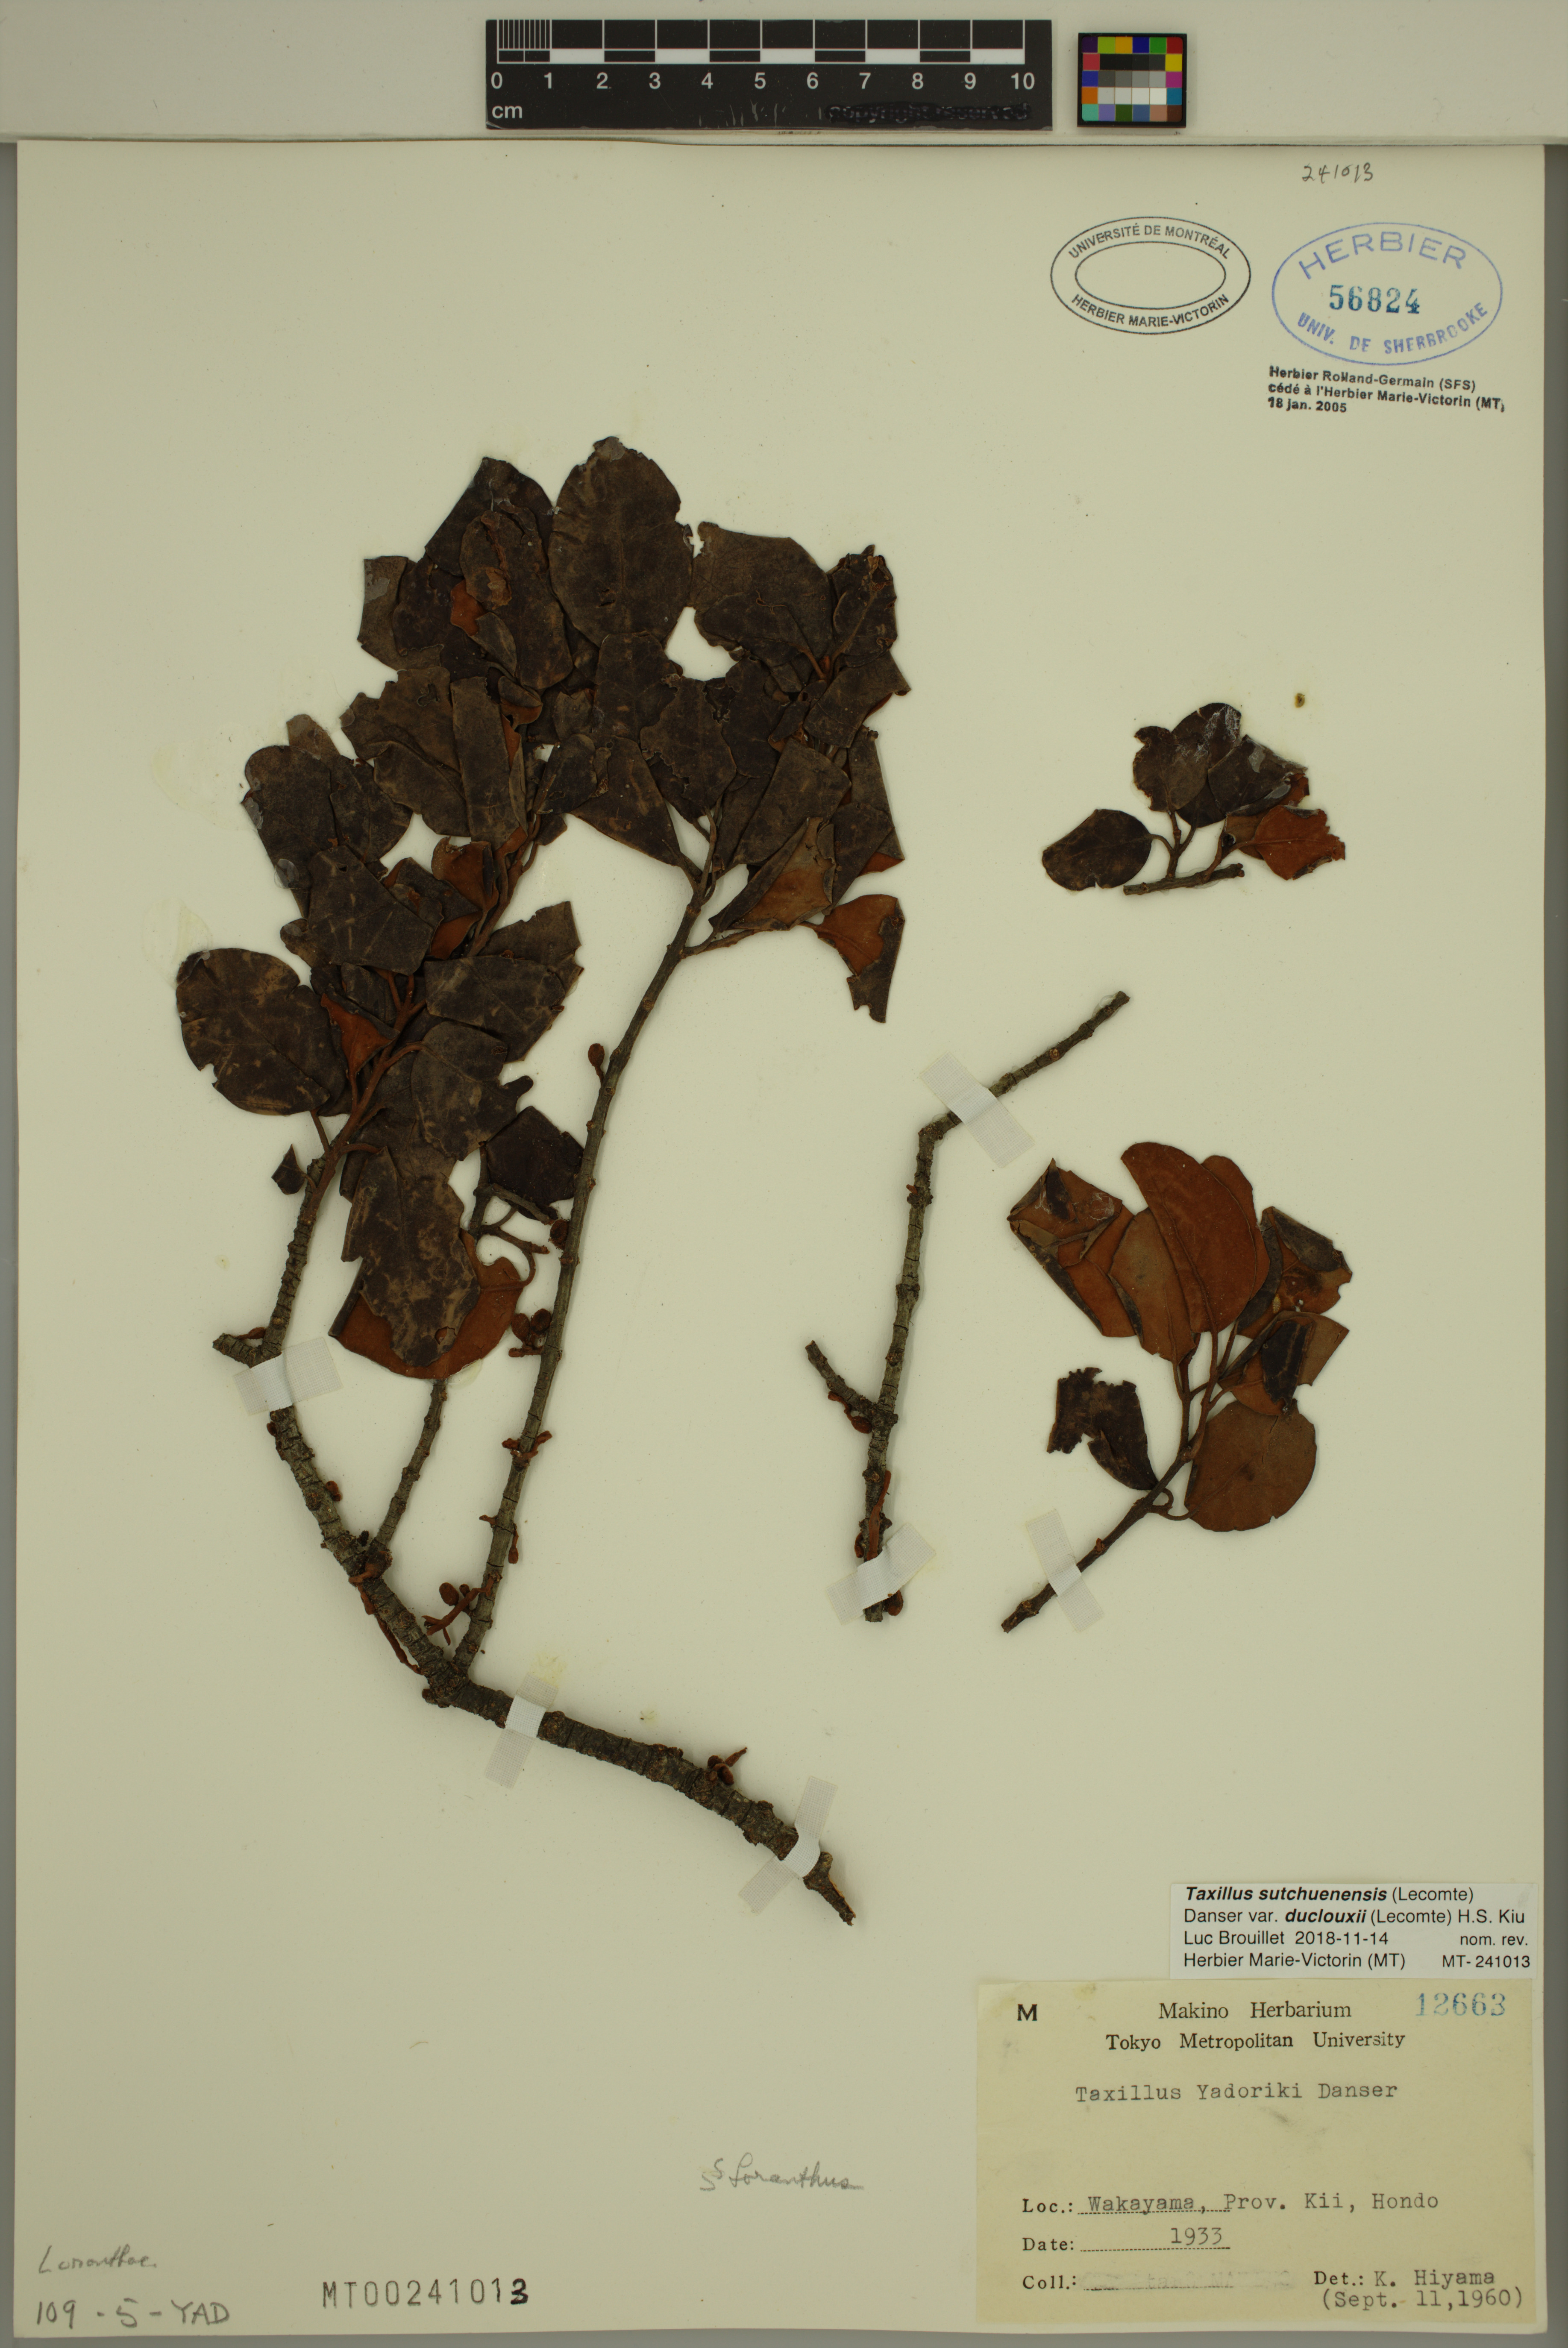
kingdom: Plantae
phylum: Tracheophyta
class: Magnoliopsida
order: Santalales
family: Loranthaceae
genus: Taxillus
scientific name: Taxillus sutchuenensis
